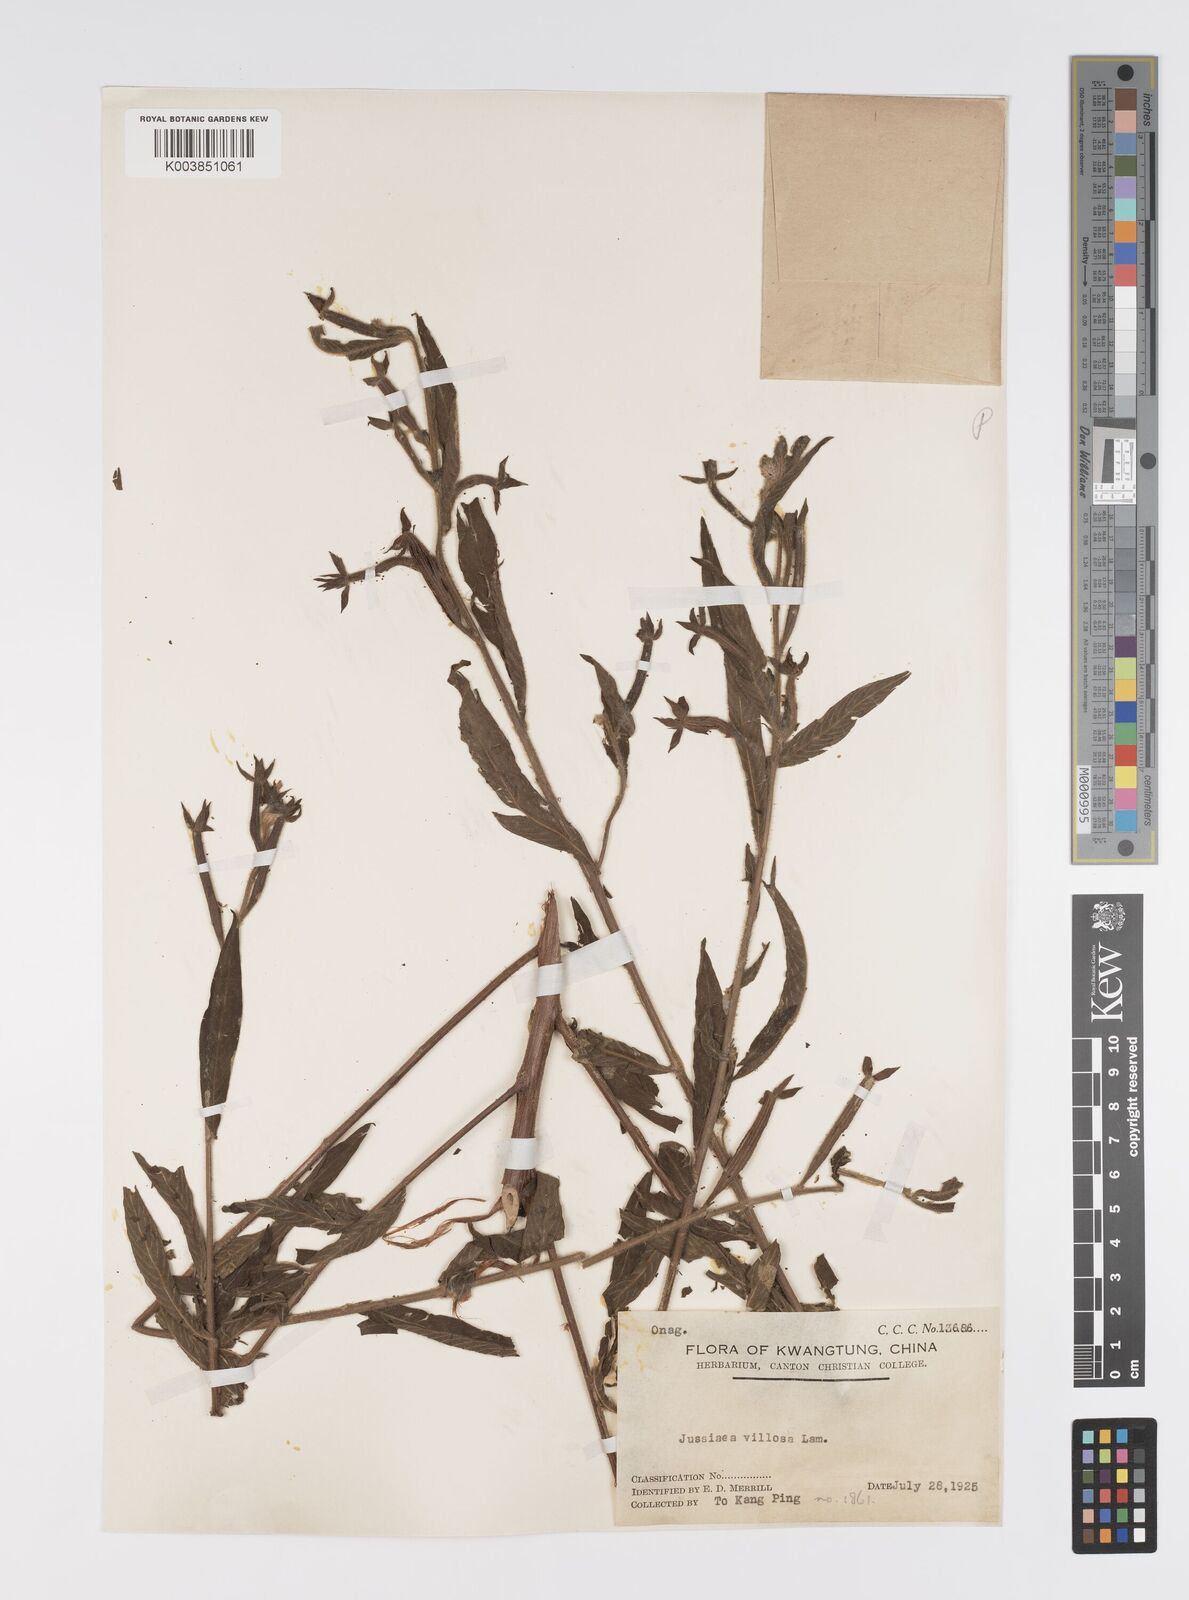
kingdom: Plantae
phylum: Tracheophyta
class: Magnoliopsida
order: Myrtales
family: Onagraceae
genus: Ludwigia
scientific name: Ludwigia octovalvis
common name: Water-primrose
